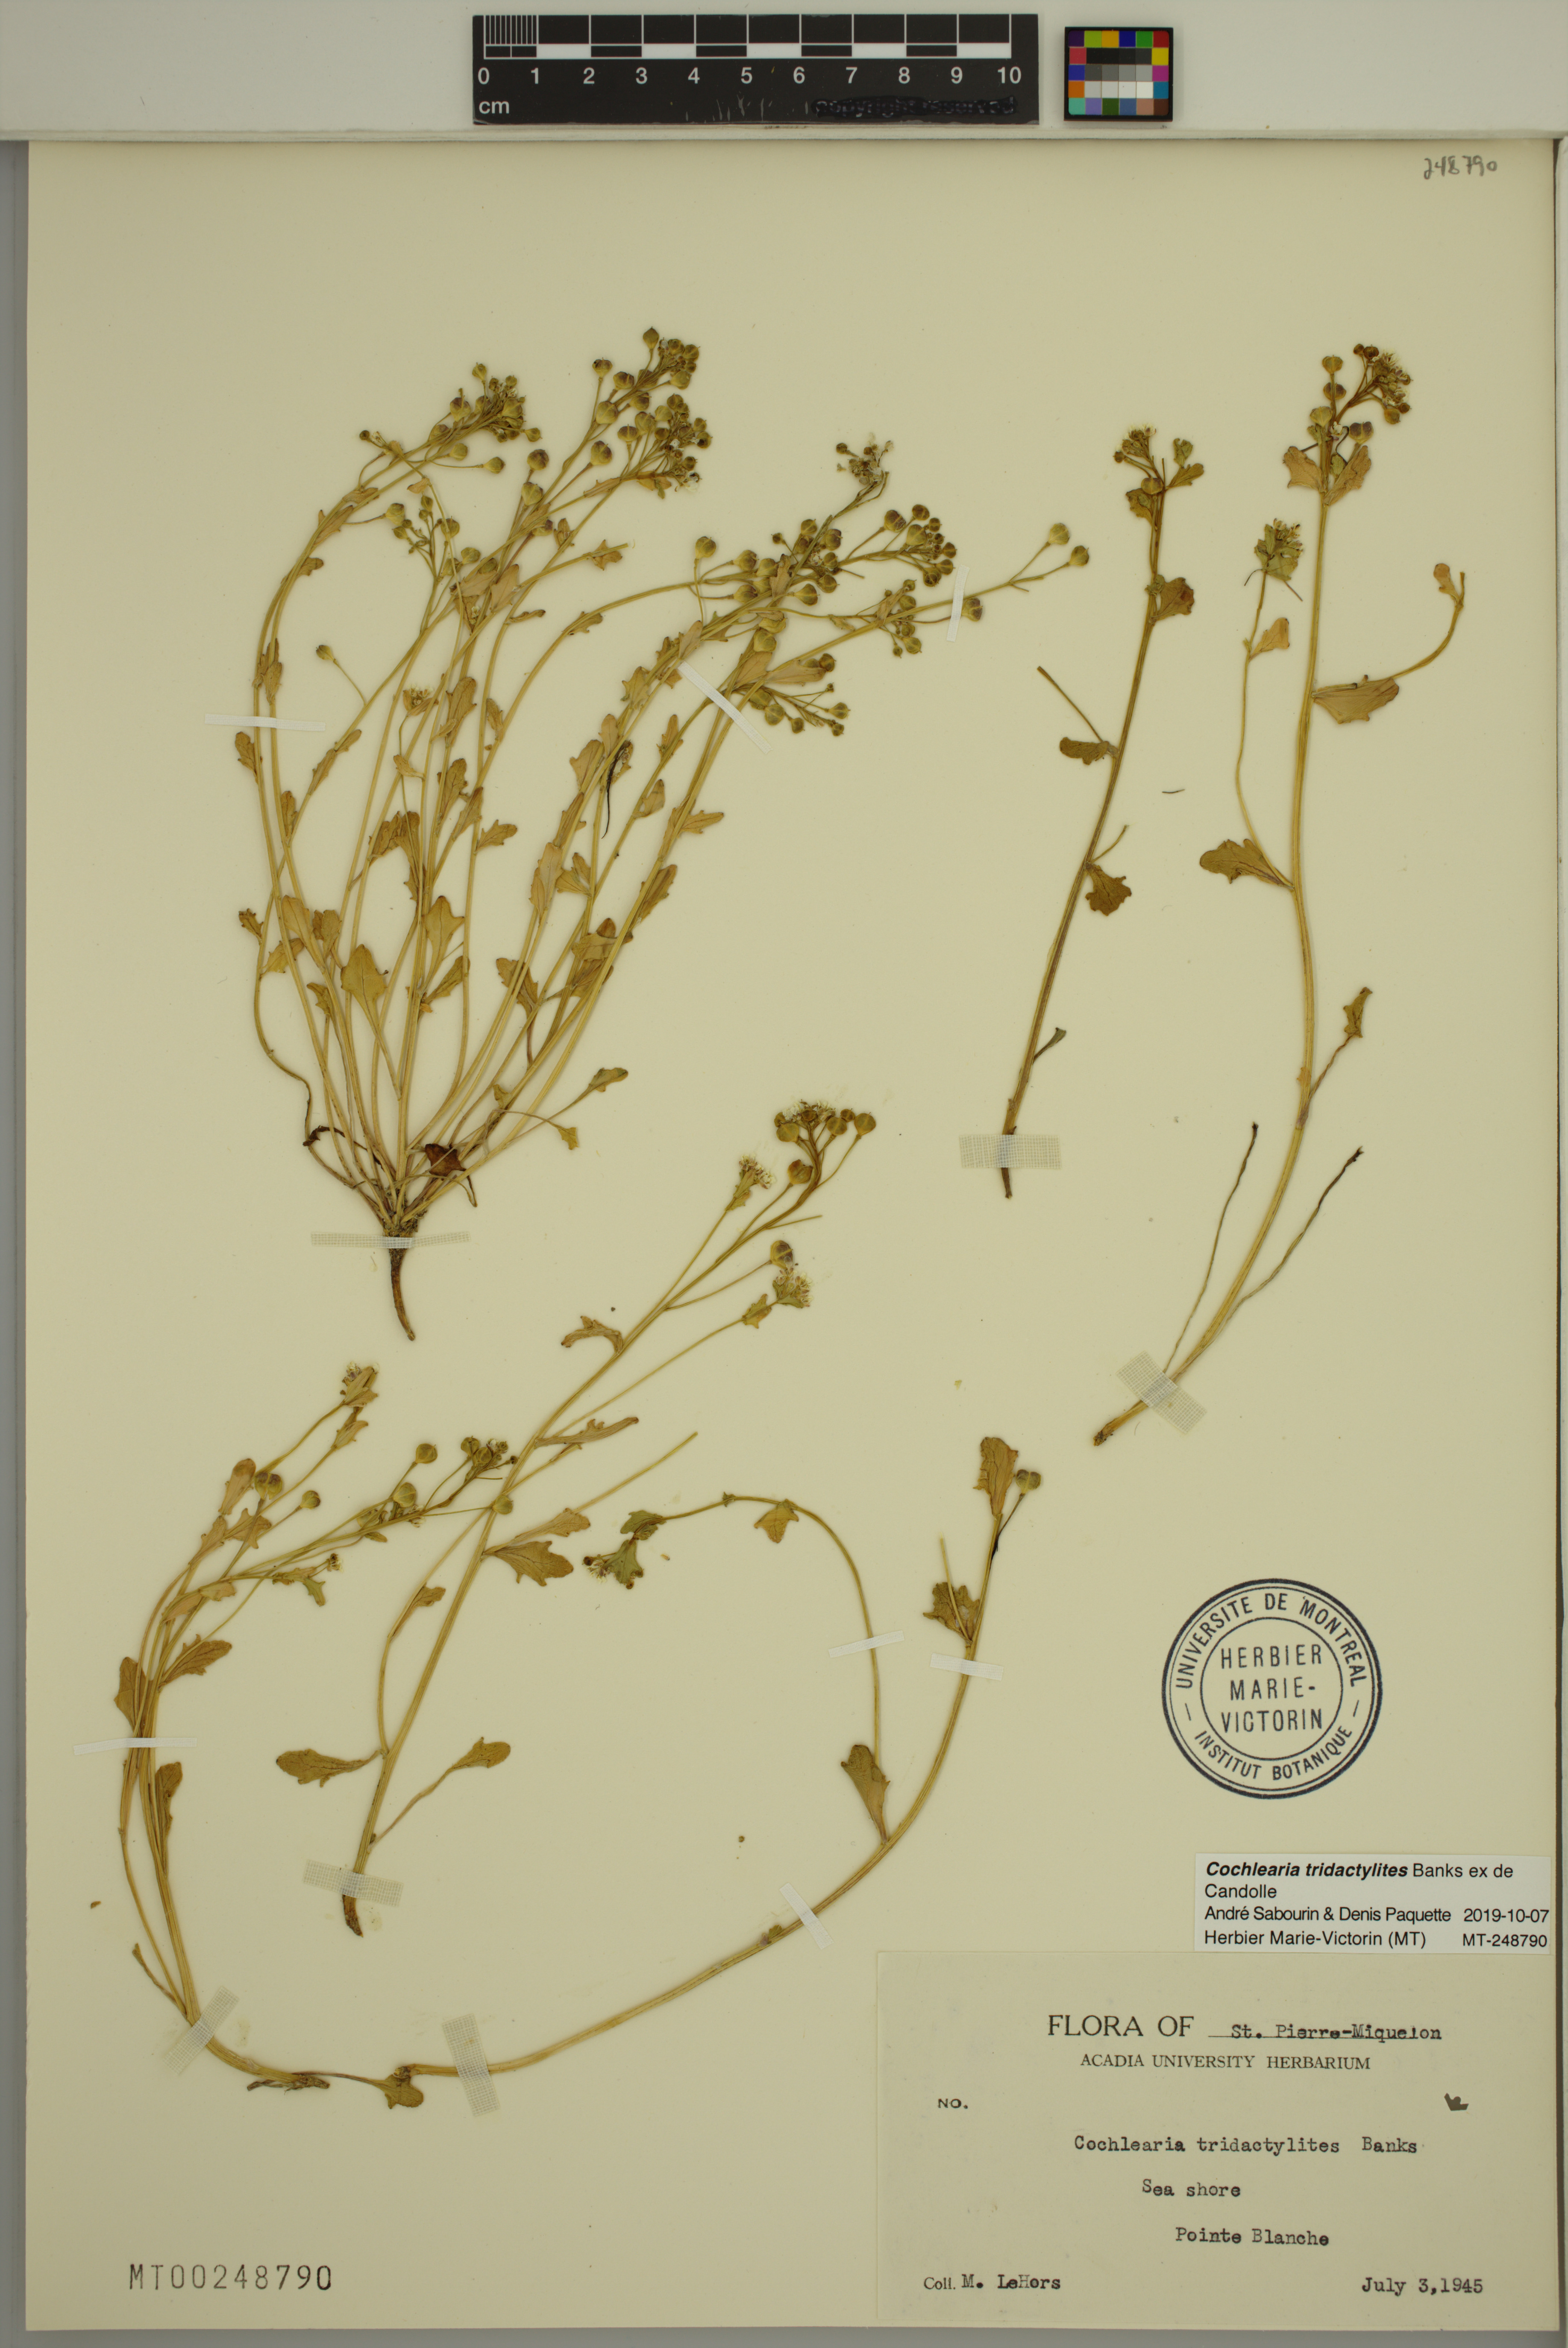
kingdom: Plantae
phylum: Tracheophyta
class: Magnoliopsida
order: Brassicales
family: Brassicaceae
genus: Cochlearia
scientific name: Cochlearia tridactylites
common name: Limestone scurvygrass
